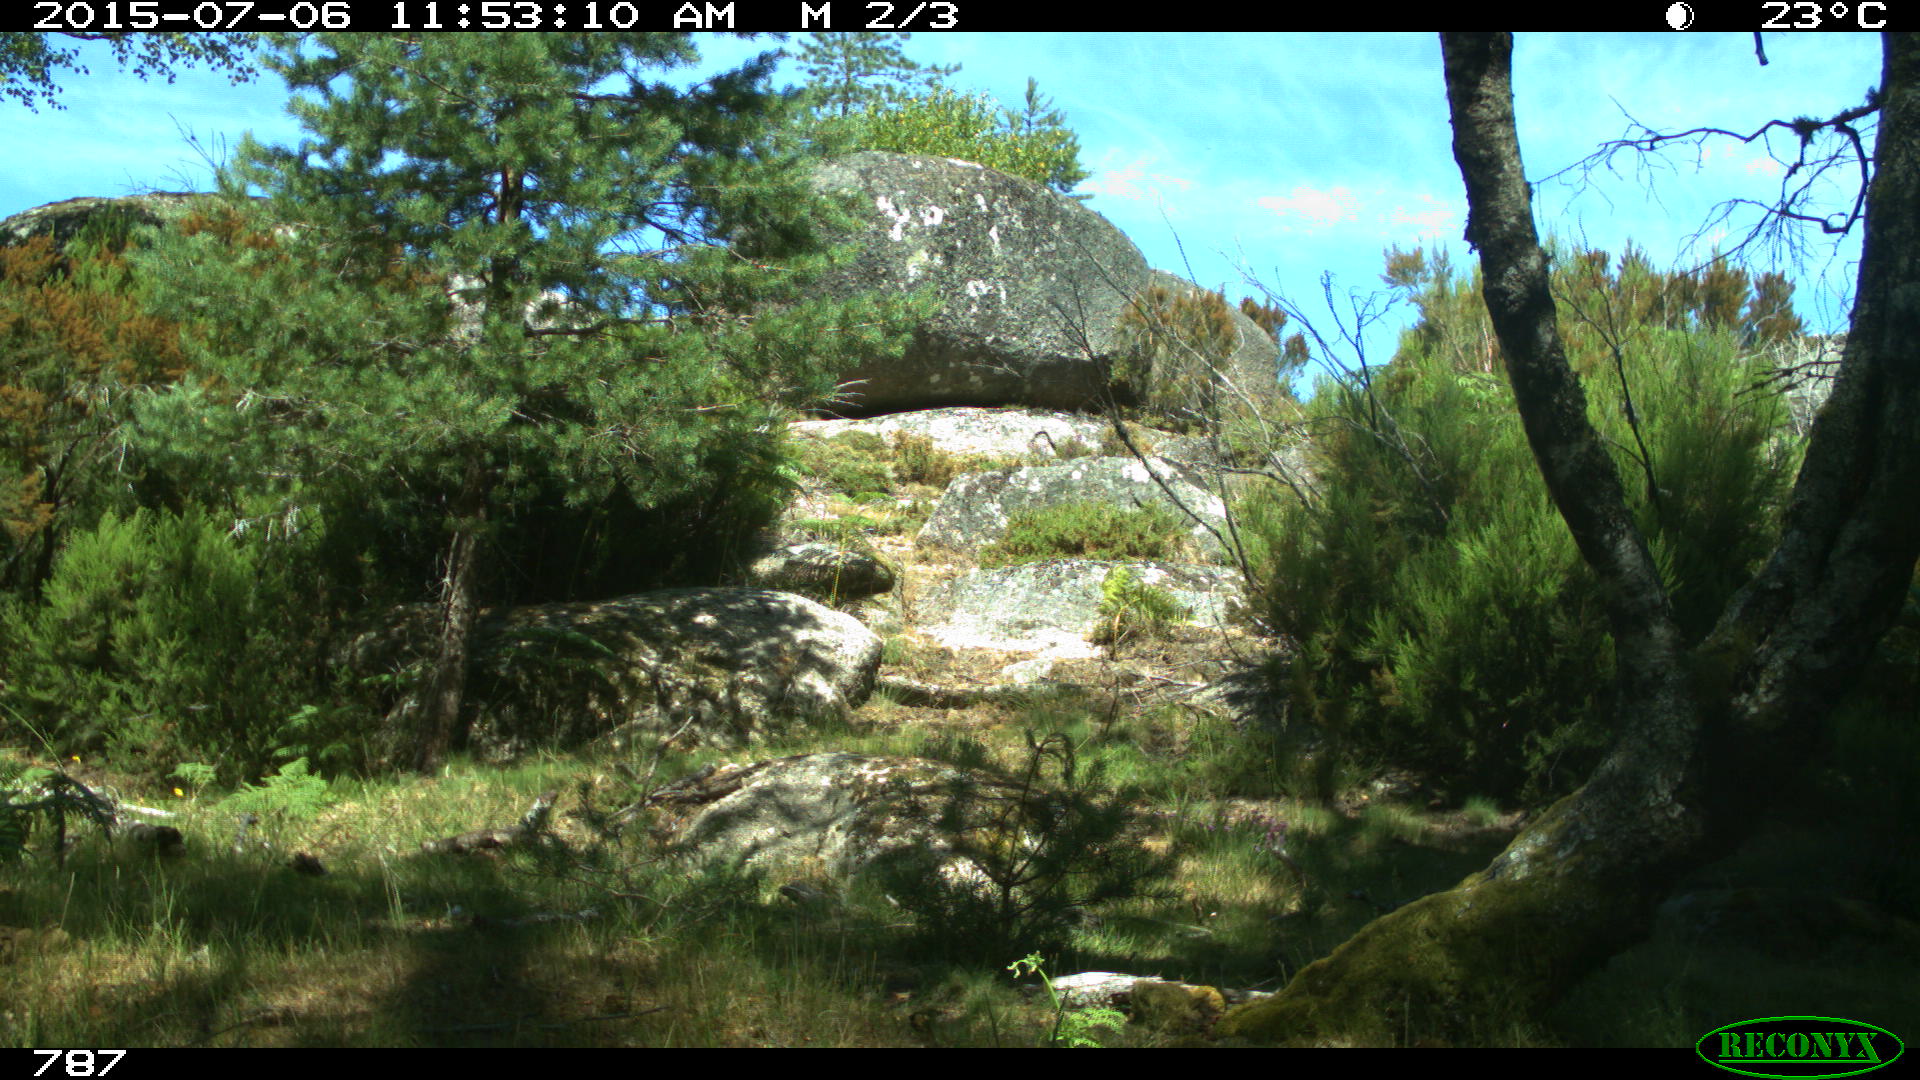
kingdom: Animalia
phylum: Chordata
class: Mammalia
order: Artiodactyla
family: Bovidae
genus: Bos
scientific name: Bos taurus
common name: Domesticated cattle
